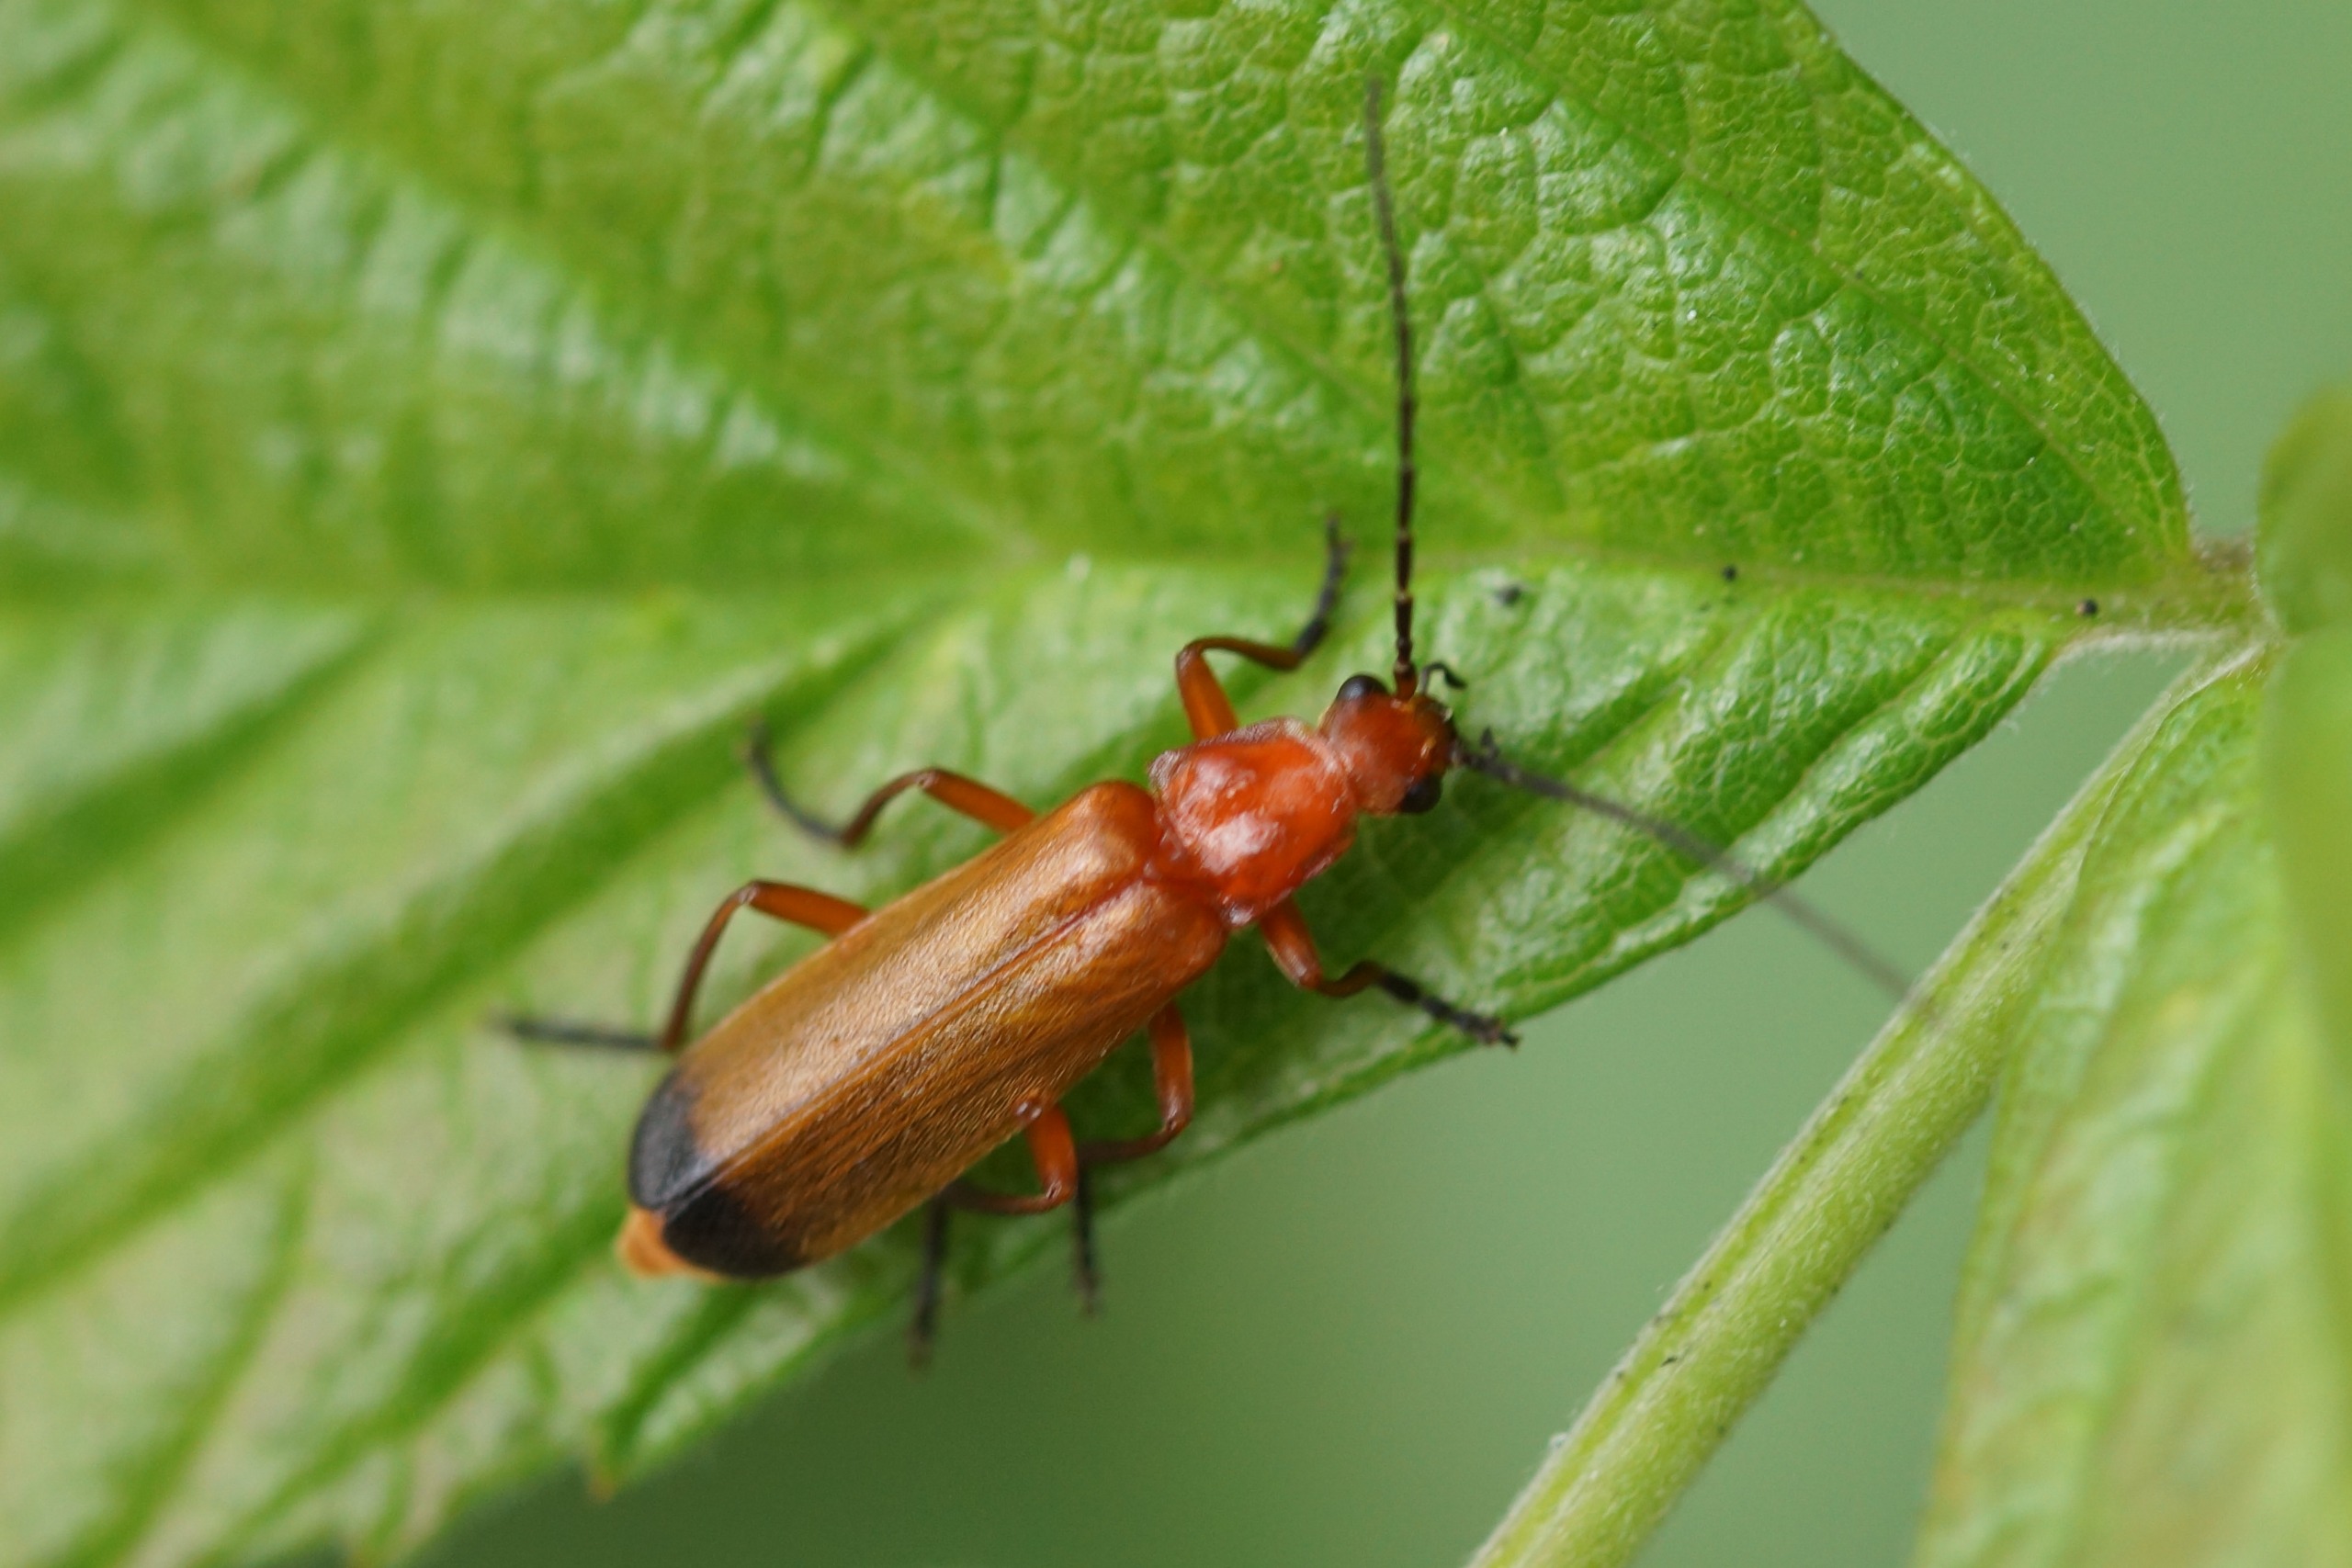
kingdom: Animalia
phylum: Arthropoda
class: Insecta
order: Coleoptera
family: Cantharidae
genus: Rhagonycha
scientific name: Rhagonycha fulva
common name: Præstebille
